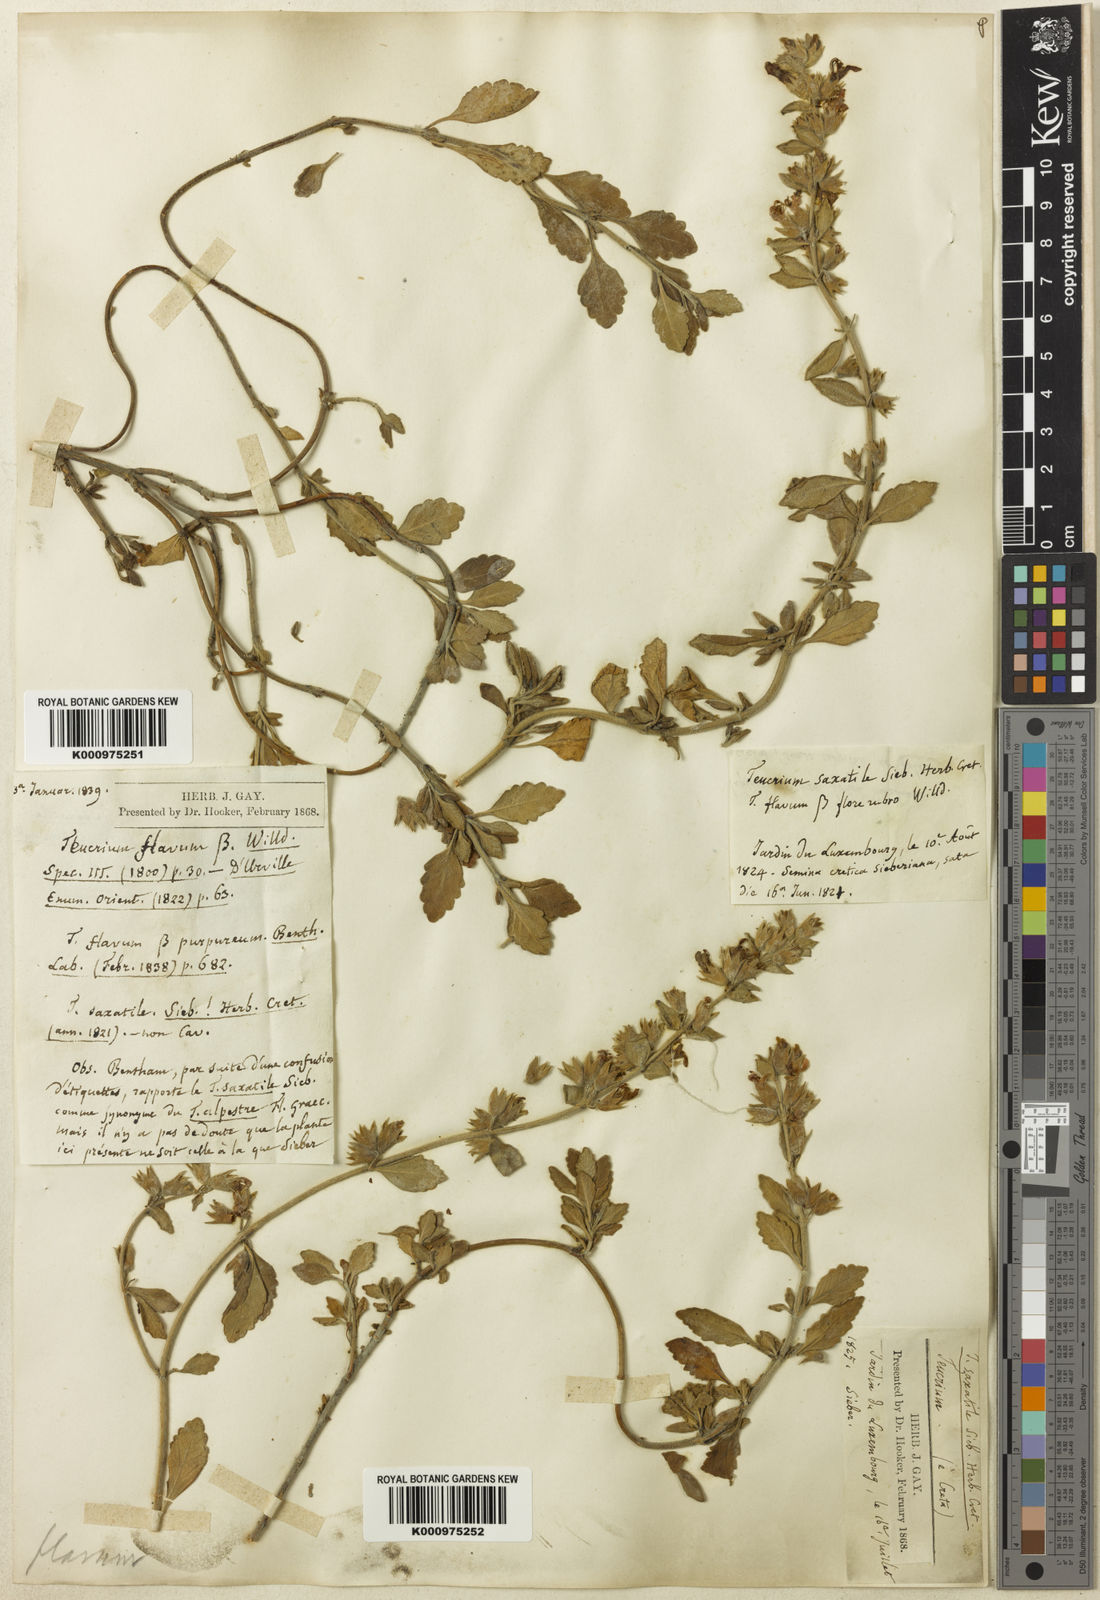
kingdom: Plantae
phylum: Tracheophyta
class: Magnoliopsida
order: Lamiales
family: Lamiaceae
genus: Teucrium
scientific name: Teucrium flavum
